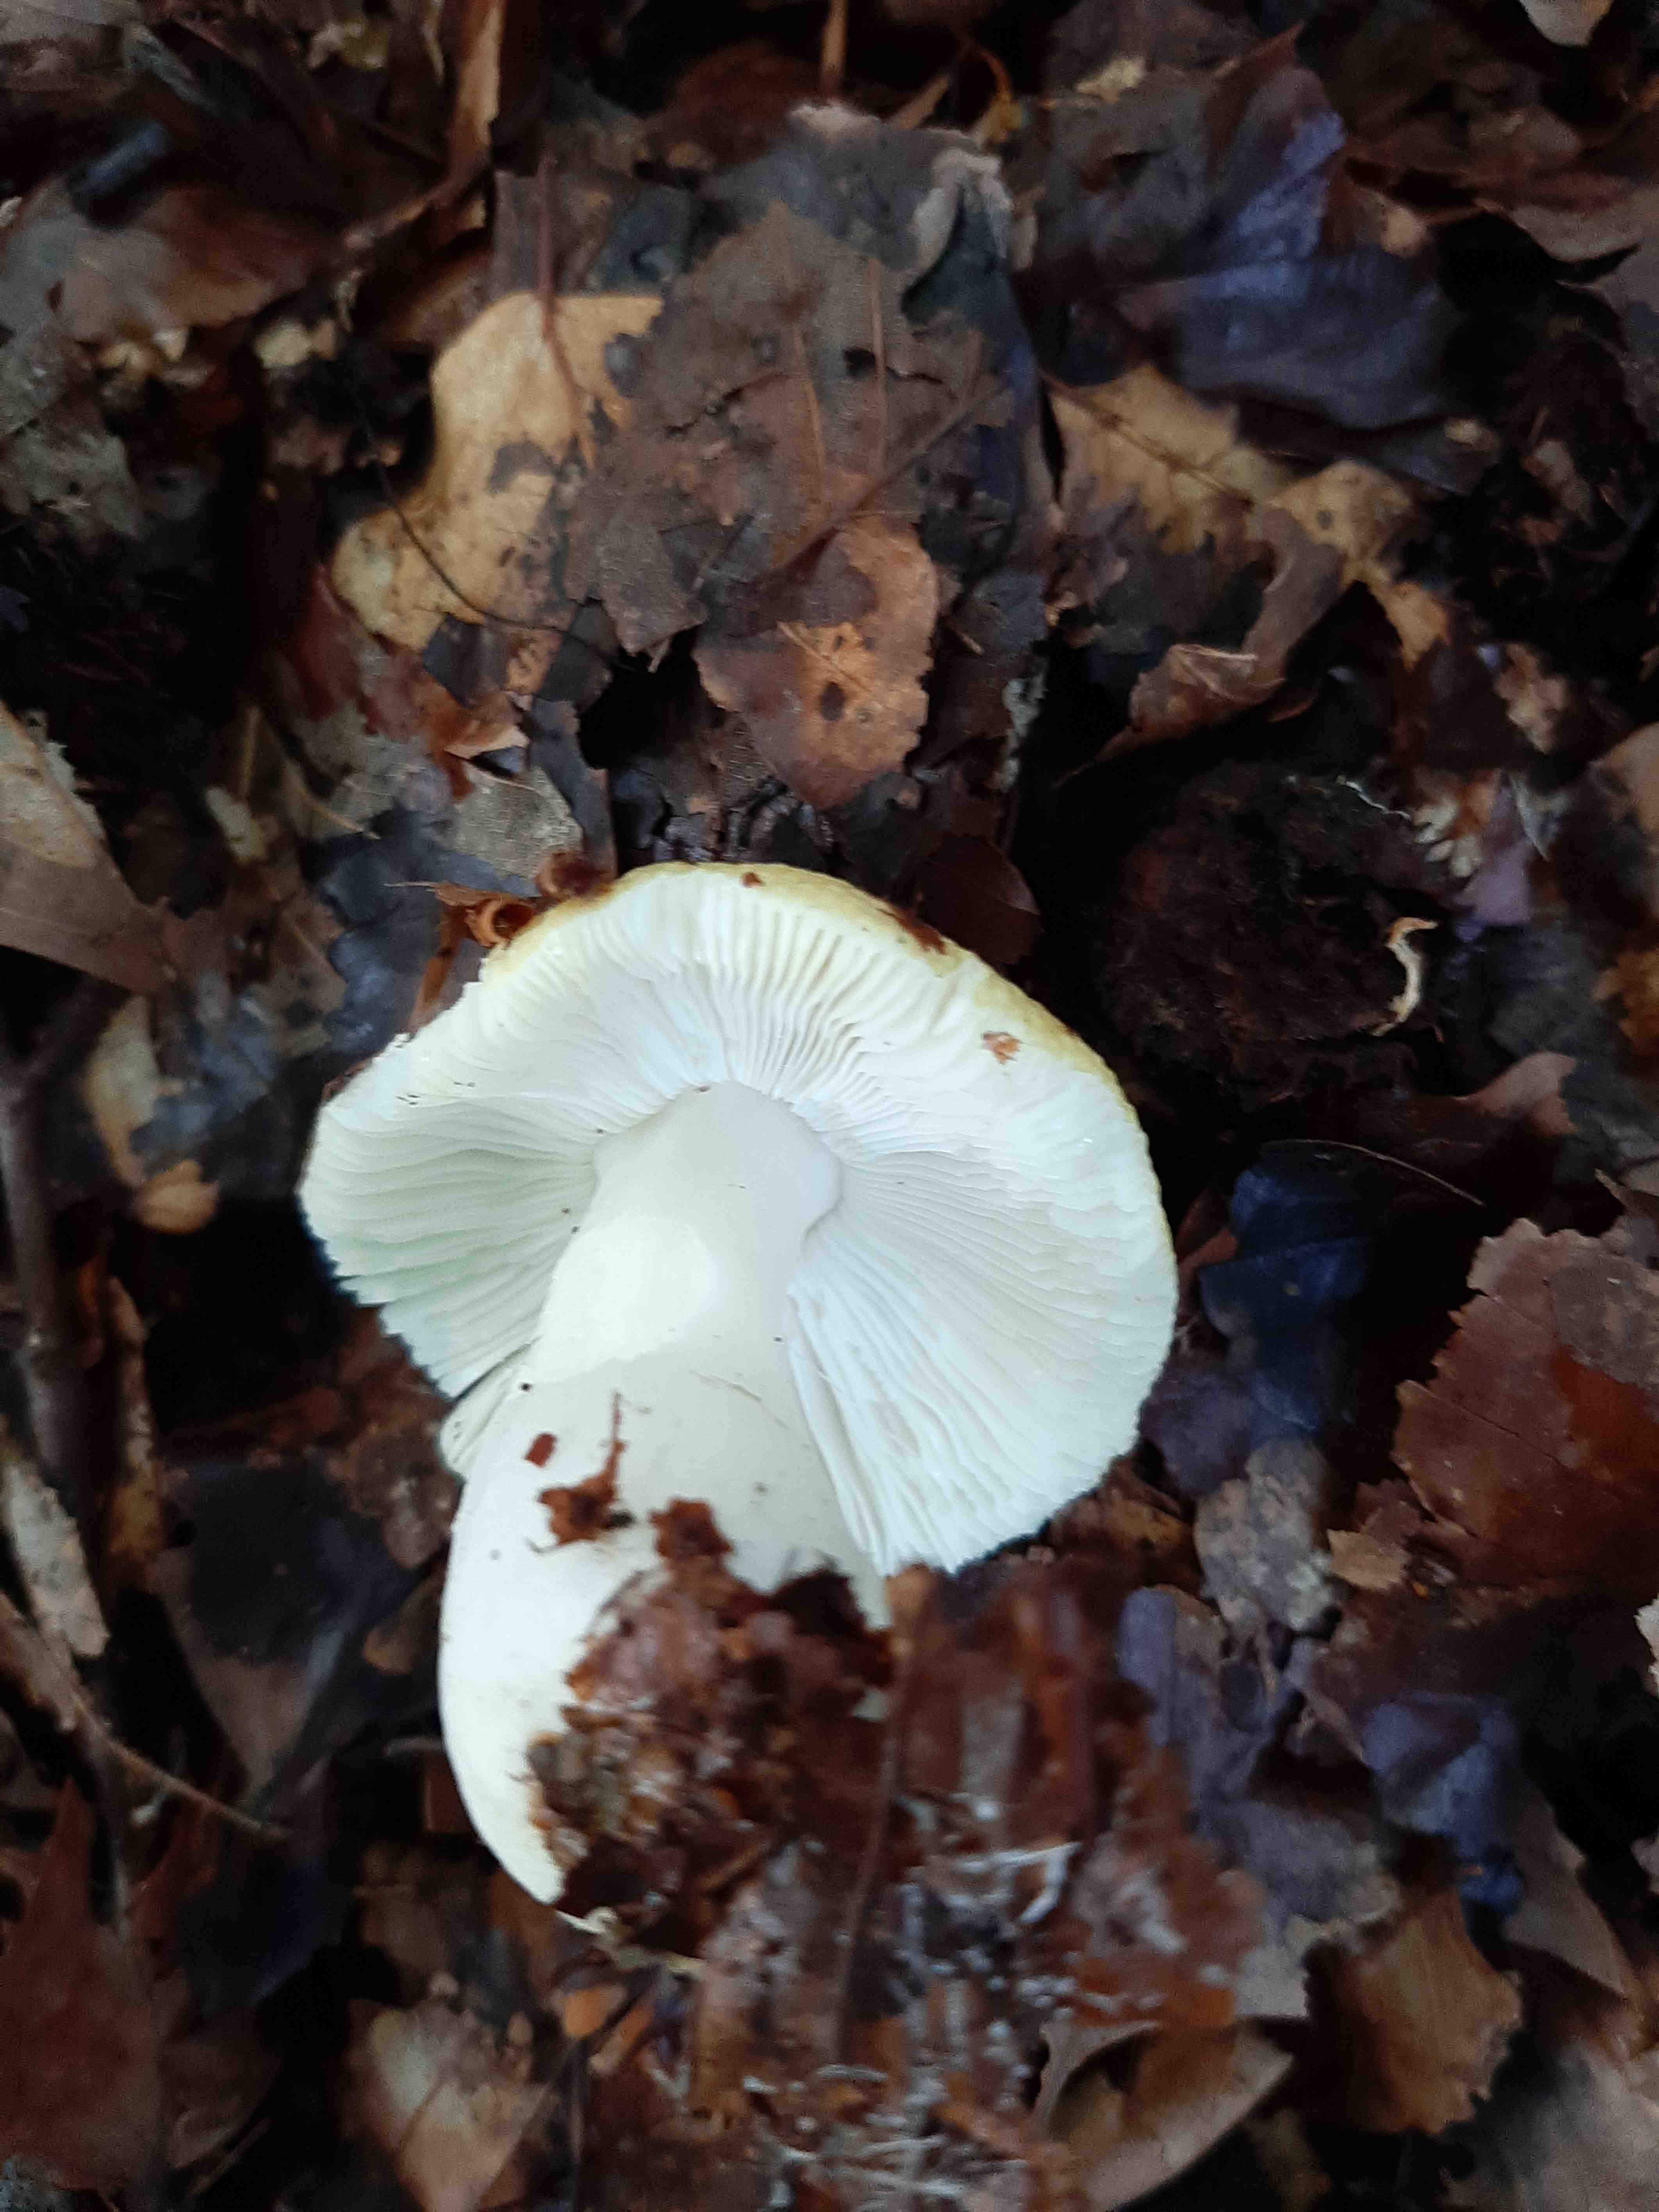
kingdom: Fungi
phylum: Basidiomycota
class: Agaricomycetes
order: Russulales
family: Russulaceae
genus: Russula
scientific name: Russula solaris
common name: sol-skørhat
